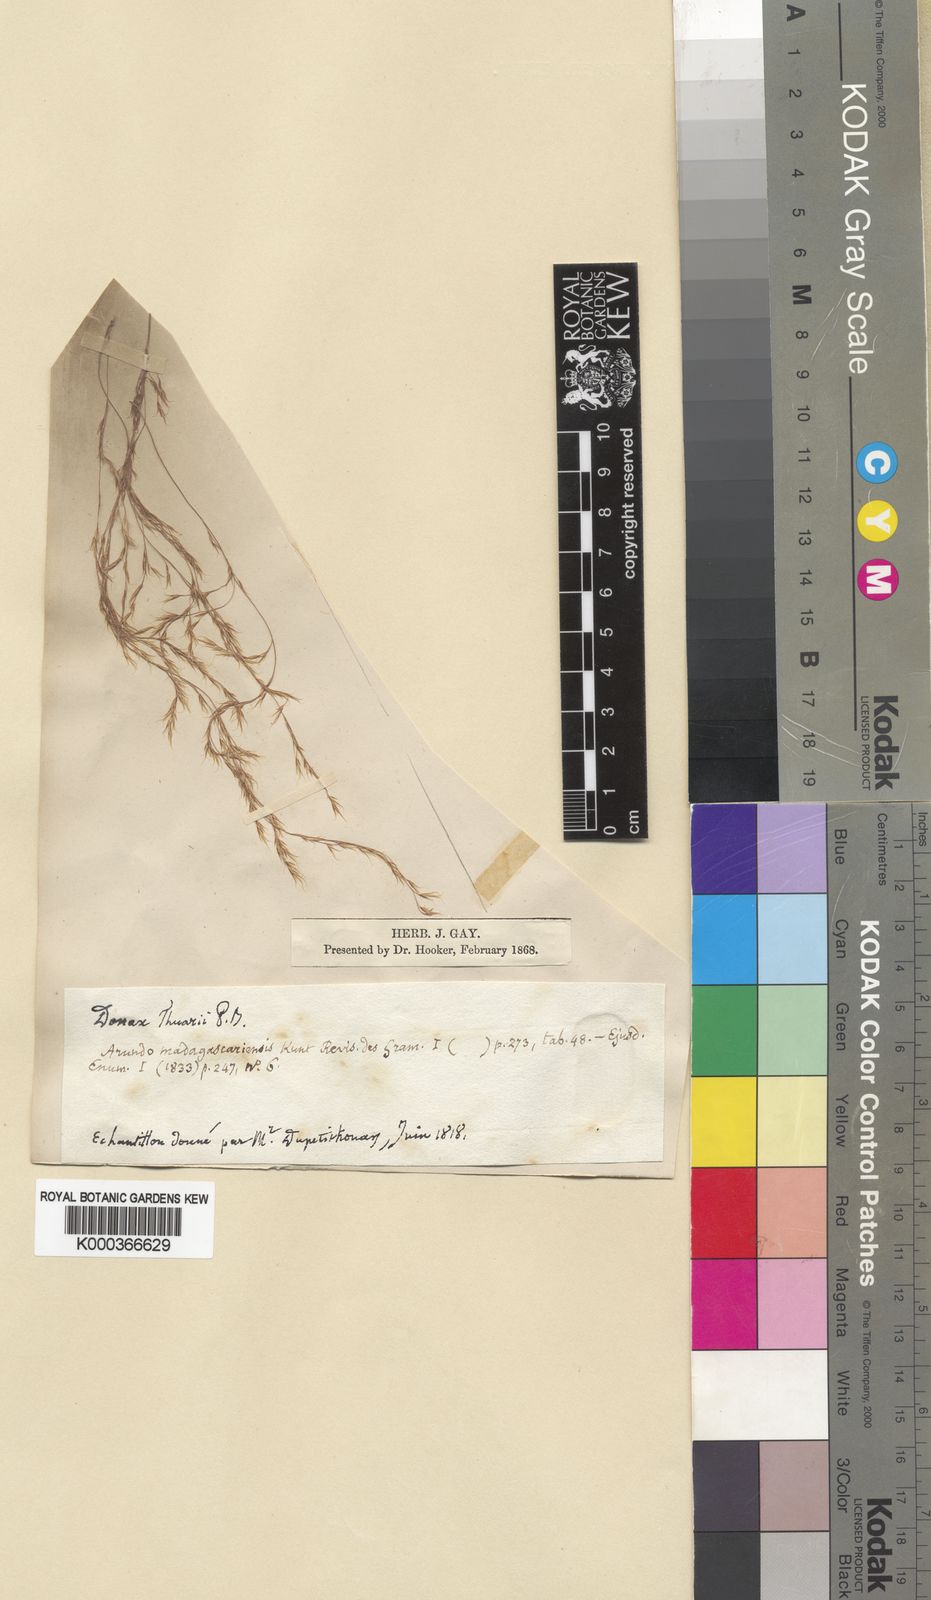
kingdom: Plantae
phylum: Tracheophyta
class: Liliopsida
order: Poales
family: Poaceae
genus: Neyraudia
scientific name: Neyraudia arundinacea
